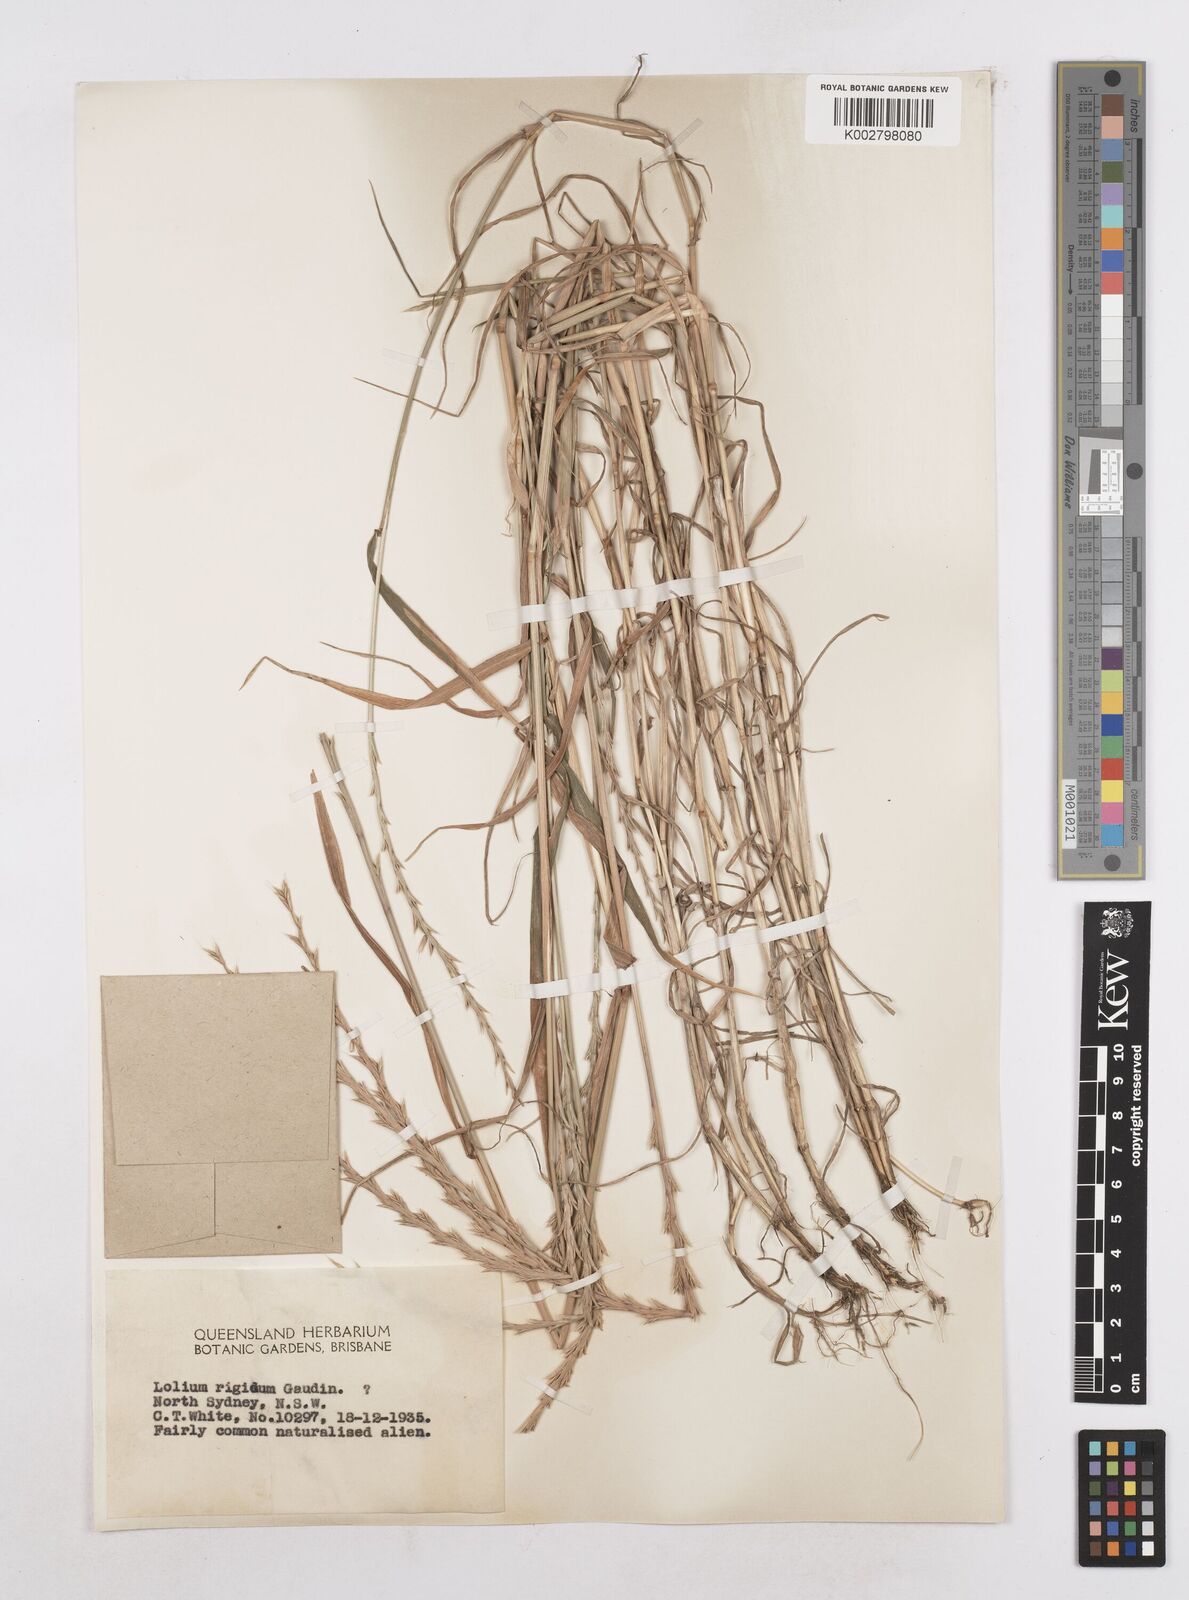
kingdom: Plantae
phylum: Tracheophyta
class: Liliopsida
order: Poales
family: Poaceae
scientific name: Poaceae
